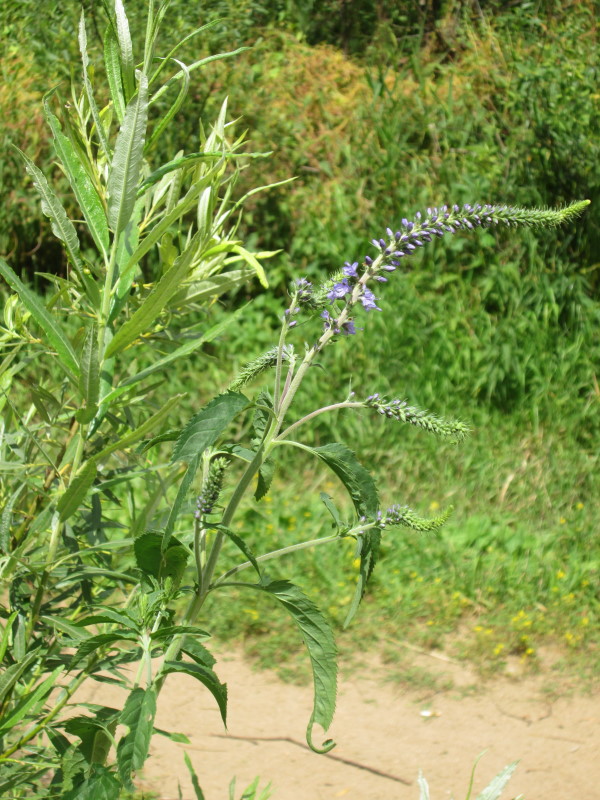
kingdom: Plantae
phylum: Tracheophyta
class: Magnoliopsida
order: Lamiales
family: Plantaginaceae
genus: Veronica
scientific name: Veronica longifolia
